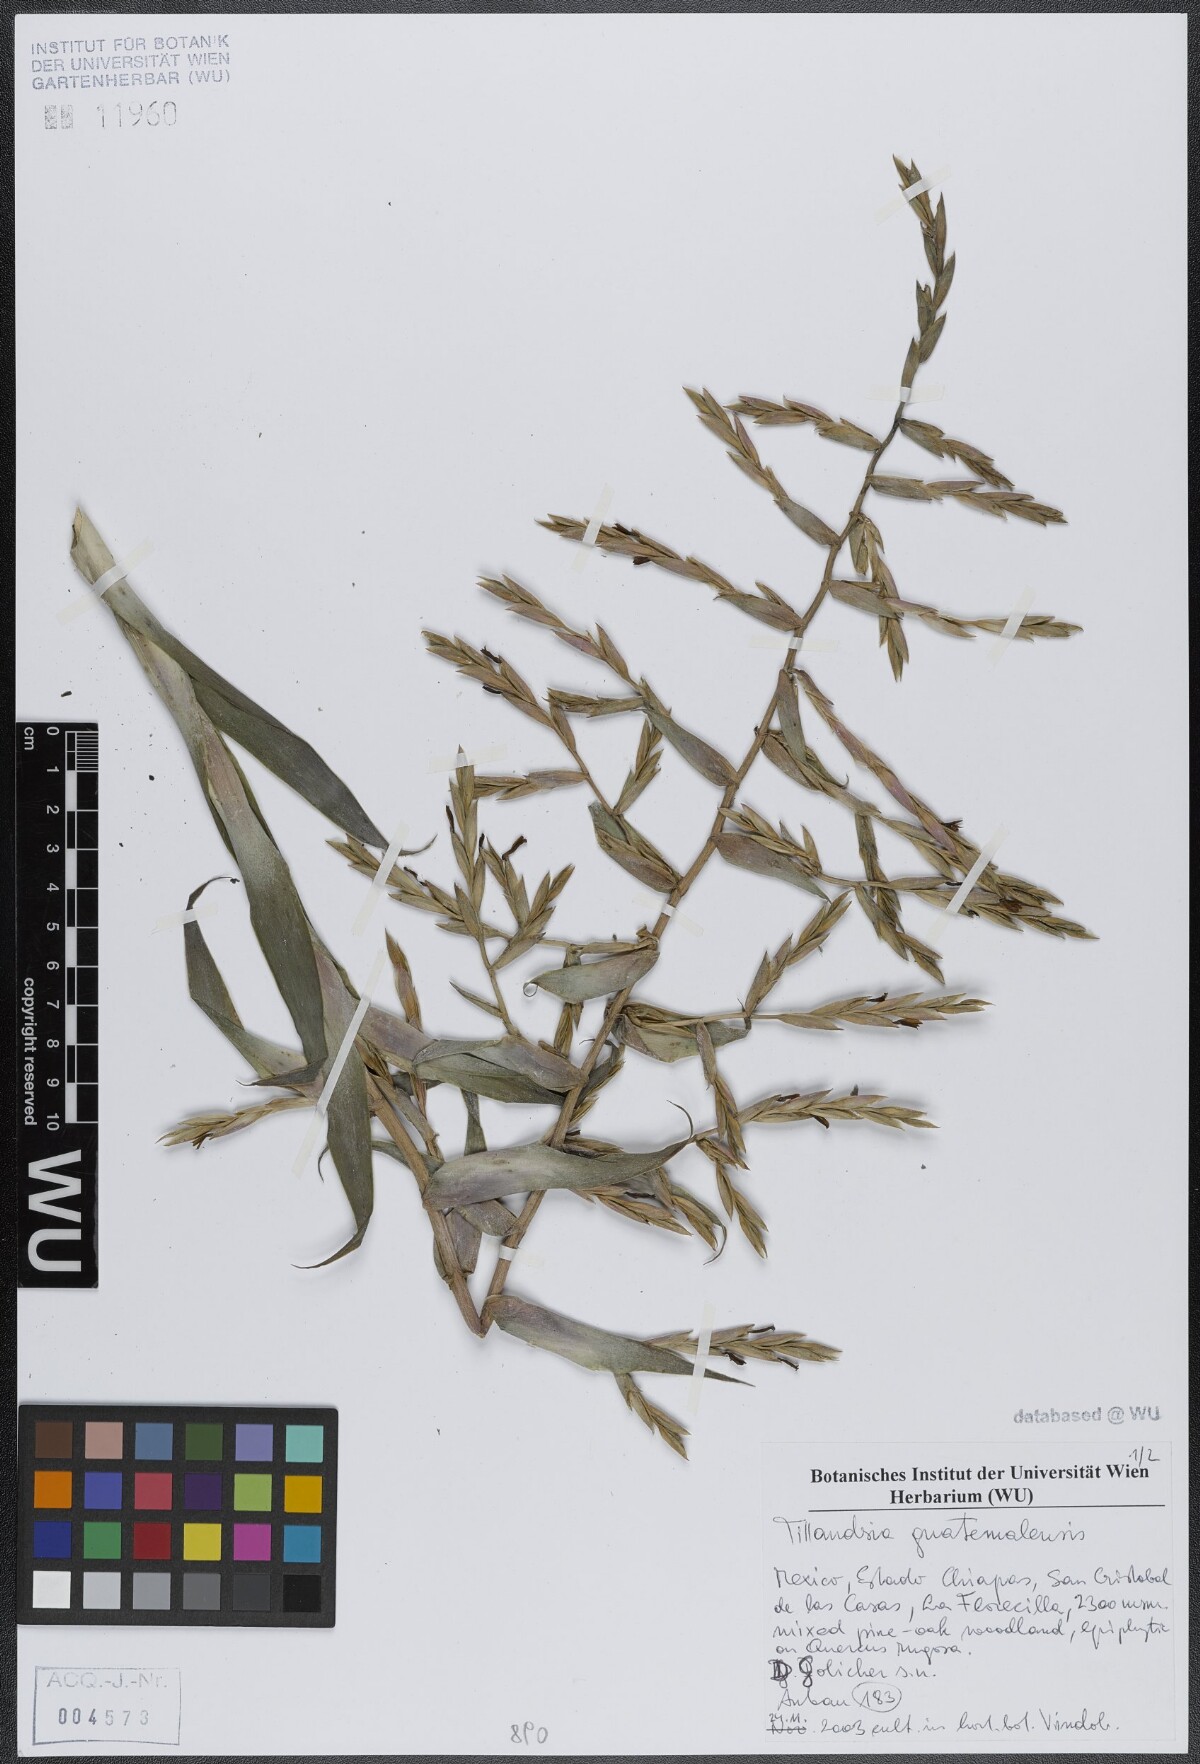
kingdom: Plantae
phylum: Tracheophyta
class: Liliopsida
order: Poales
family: Bromeliaceae
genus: Tillandsia
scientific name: Tillandsia guatemalensis
